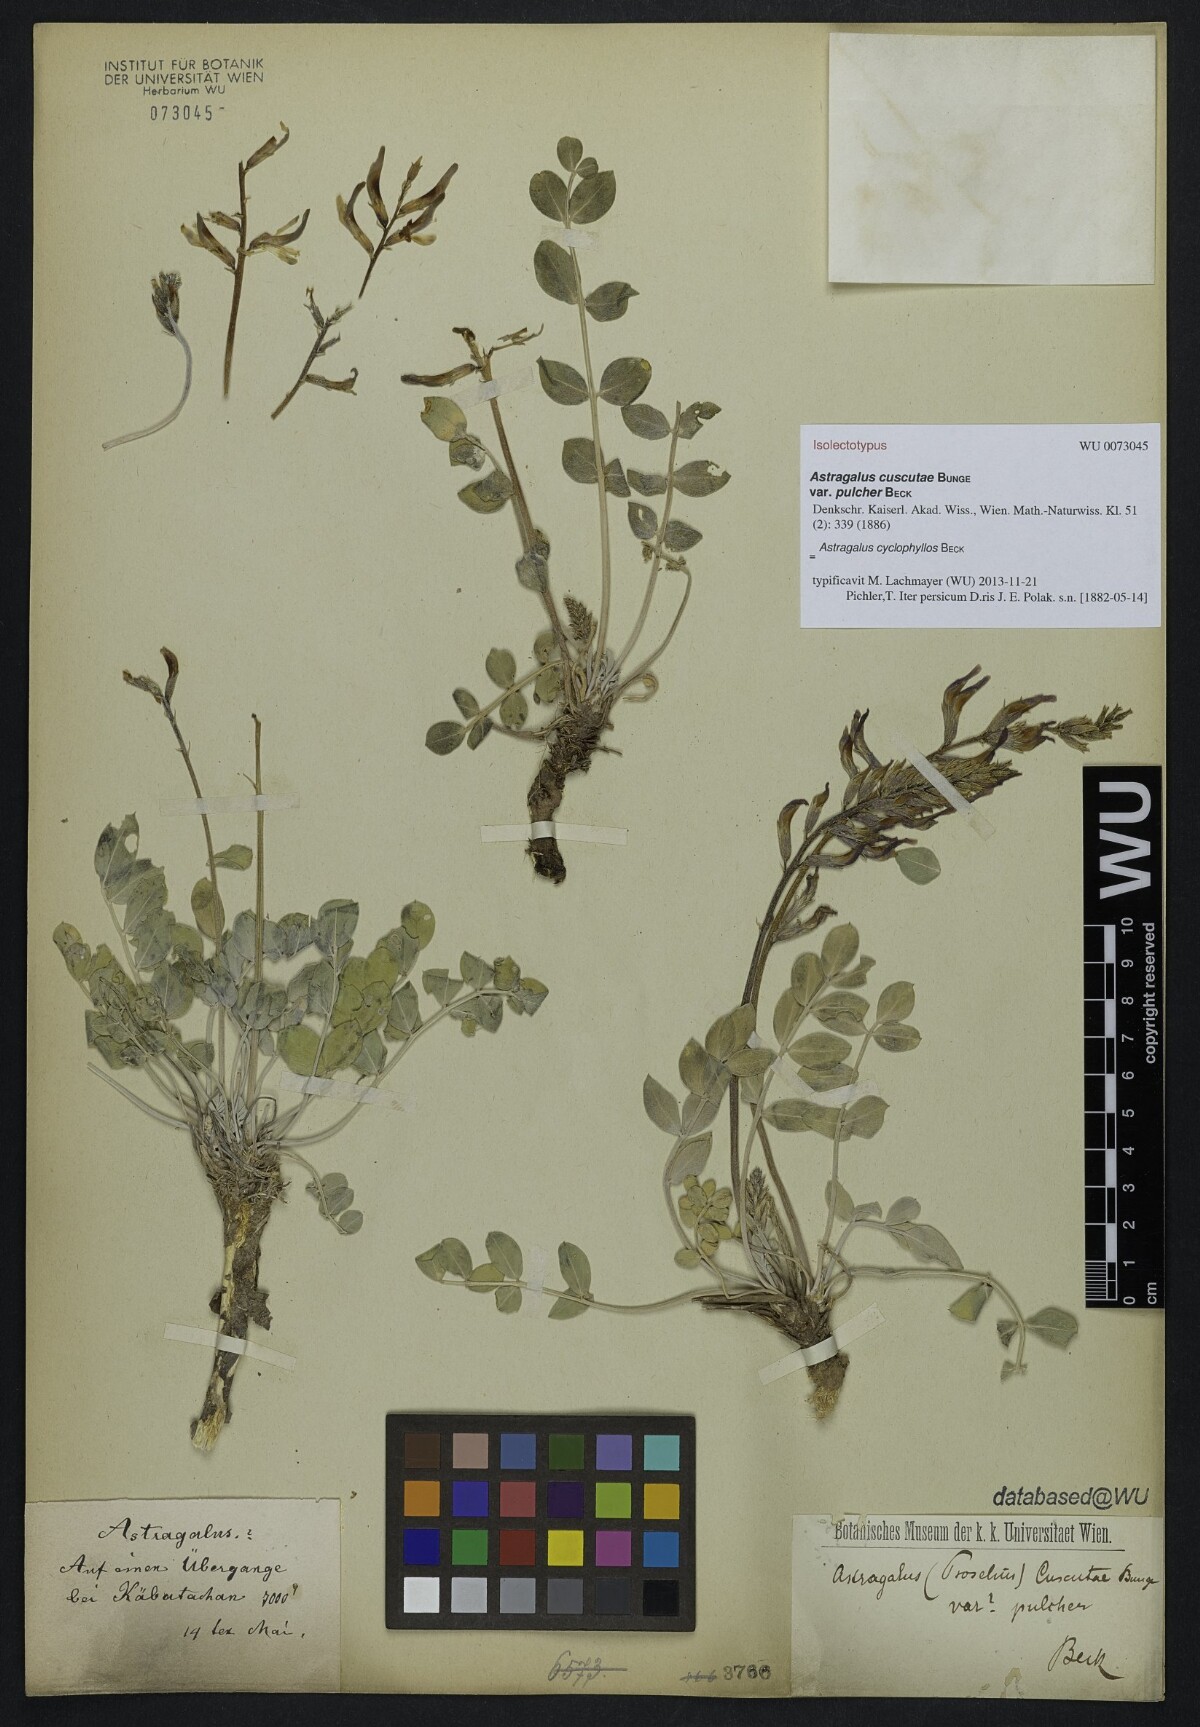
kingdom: Plantae
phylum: Tracheophyta
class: Magnoliopsida
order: Fabales
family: Fabaceae
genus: Astragalus
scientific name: Astragalus cyclophyllos
